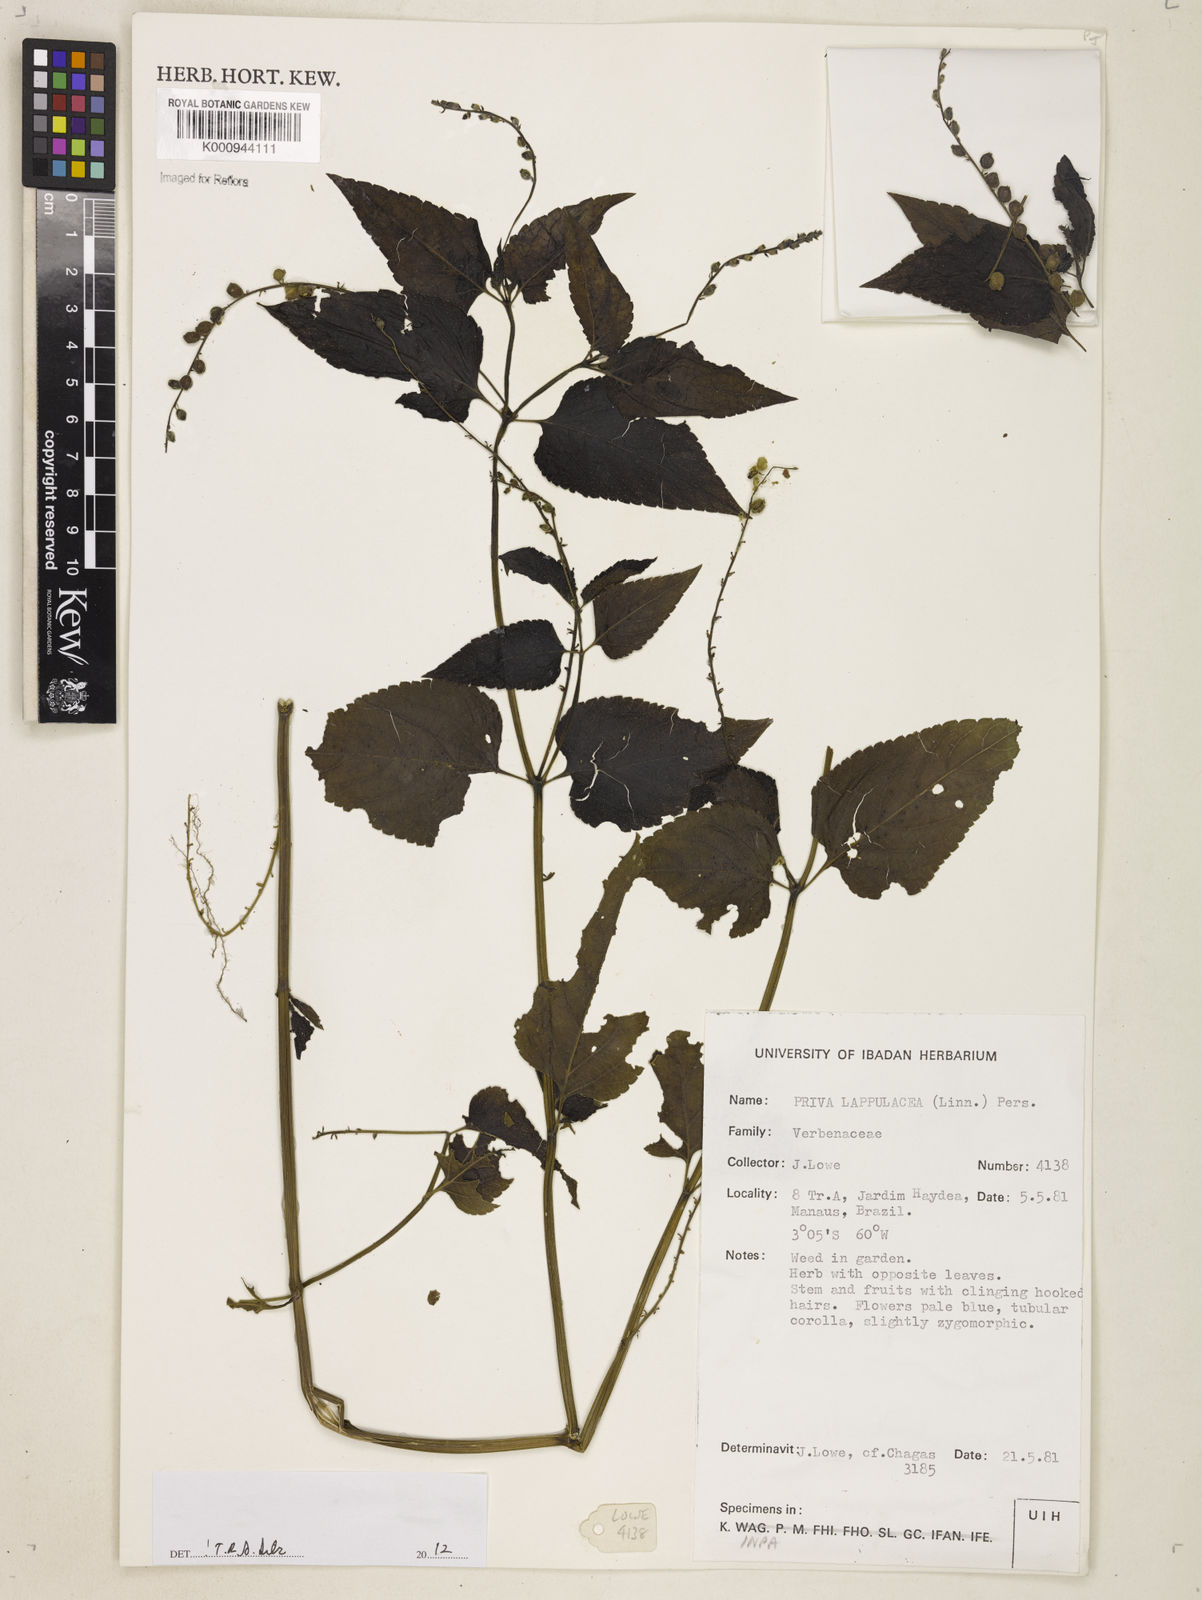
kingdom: Plantae
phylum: Tracheophyta
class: Magnoliopsida
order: Lamiales
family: Verbenaceae
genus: Priva
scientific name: Priva lappulacea
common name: Fasten-'pon-coat
